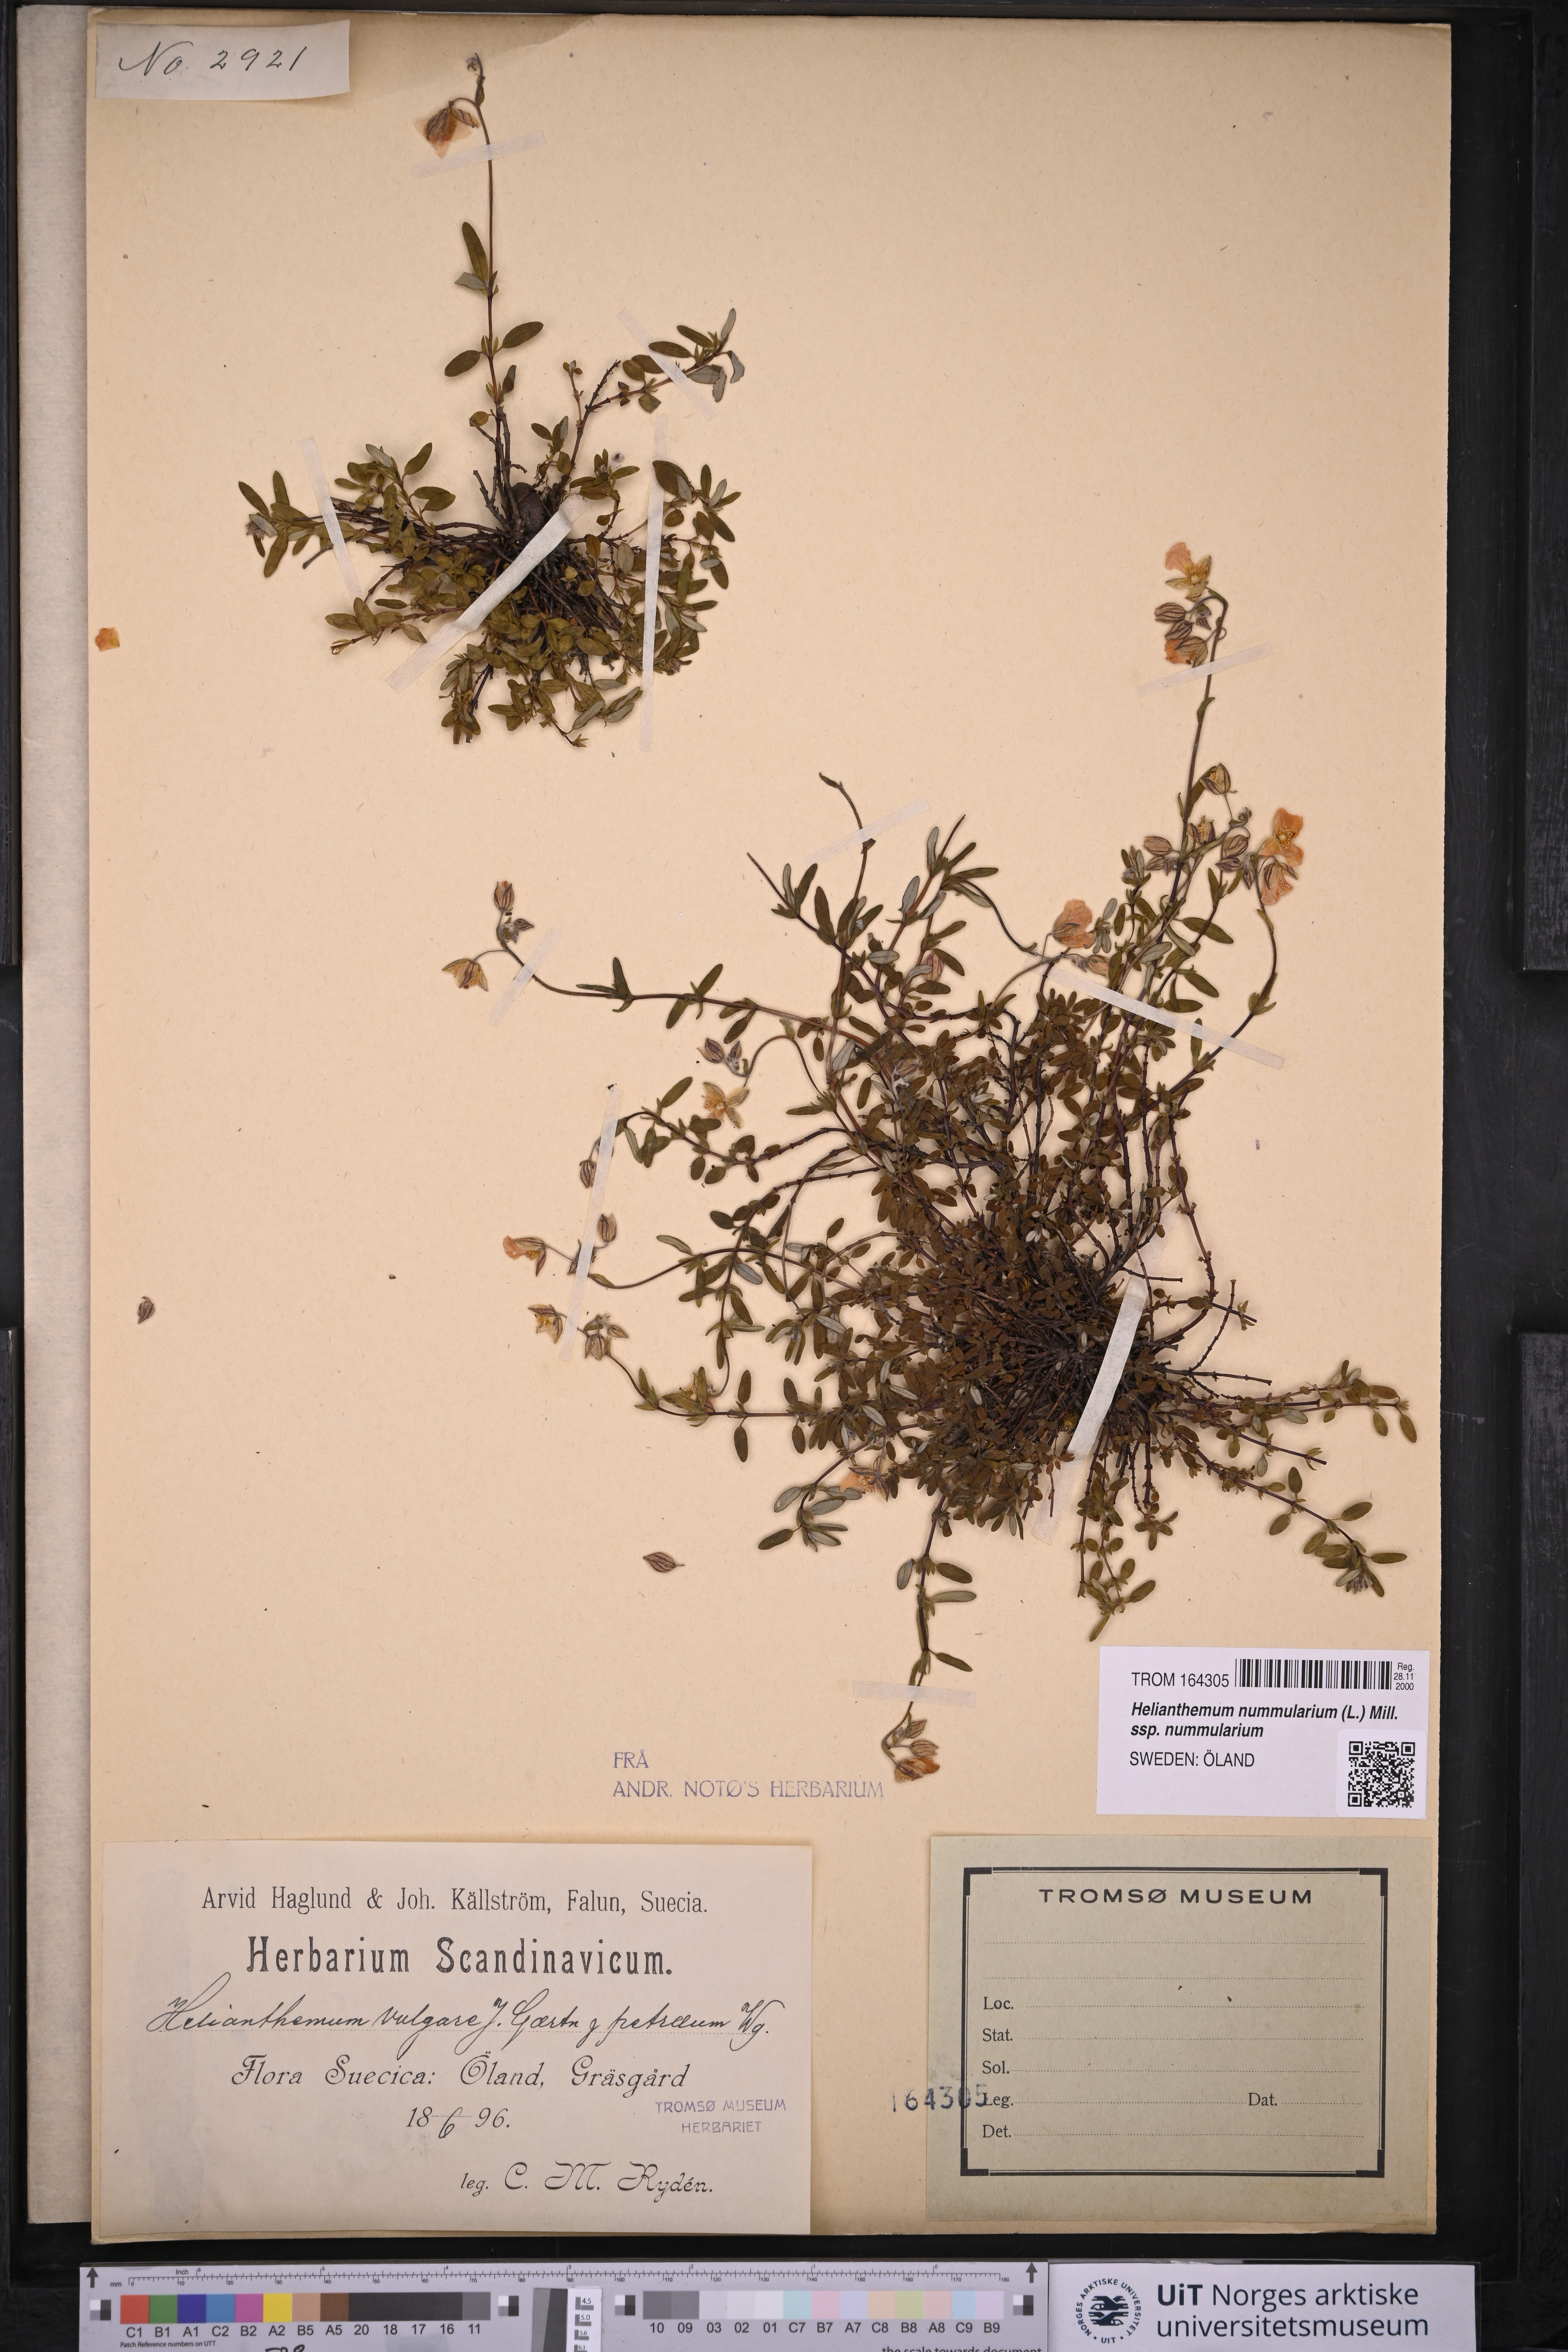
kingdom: Plantae
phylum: Tracheophyta
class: Magnoliopsida
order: Malvales
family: Cistaceae
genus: Helianthemum
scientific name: Helianthemum nummularium
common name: Common rock-rose
